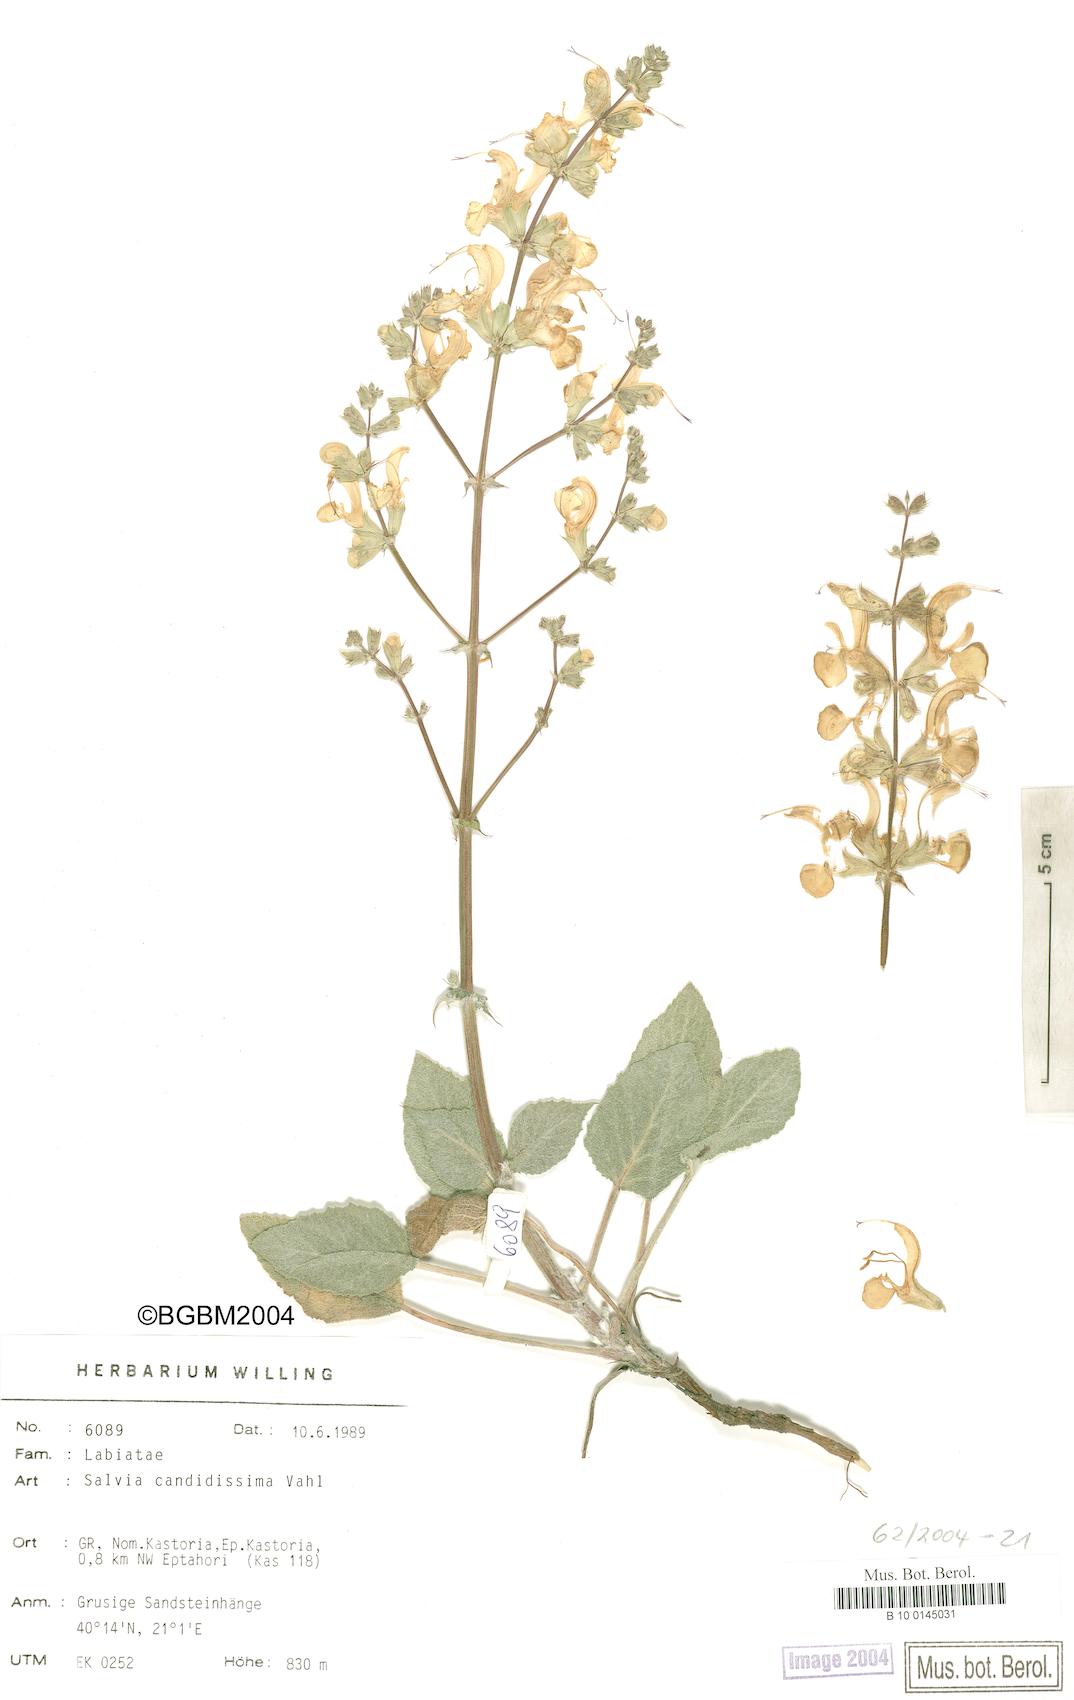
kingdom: Plantae
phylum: Tracheophyta
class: Magnoliopsida
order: Lamiales
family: Lamiaceae
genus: Salvia
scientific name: Salvia candidissima
